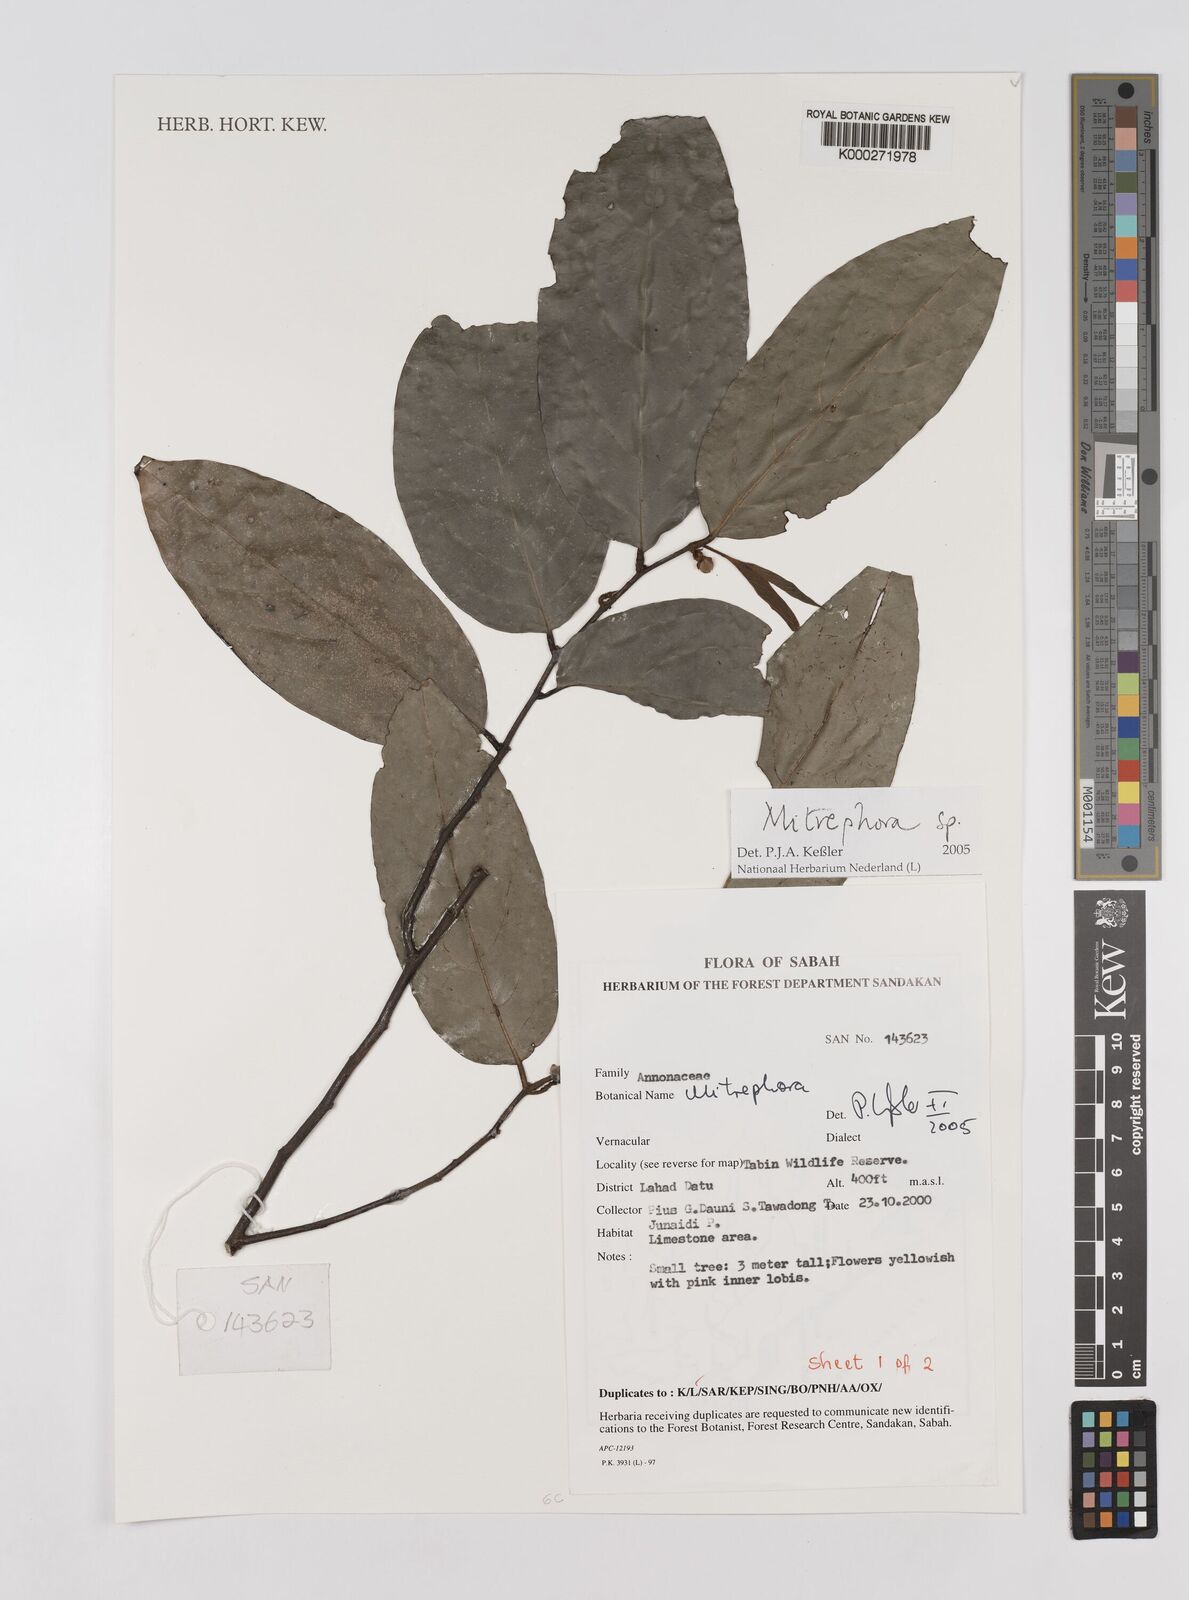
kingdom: Plantae
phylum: Tracheophyta
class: Magnoliopsida
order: Magnoliales
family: Annonaceae
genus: Mitrephora
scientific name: Mitrephora
